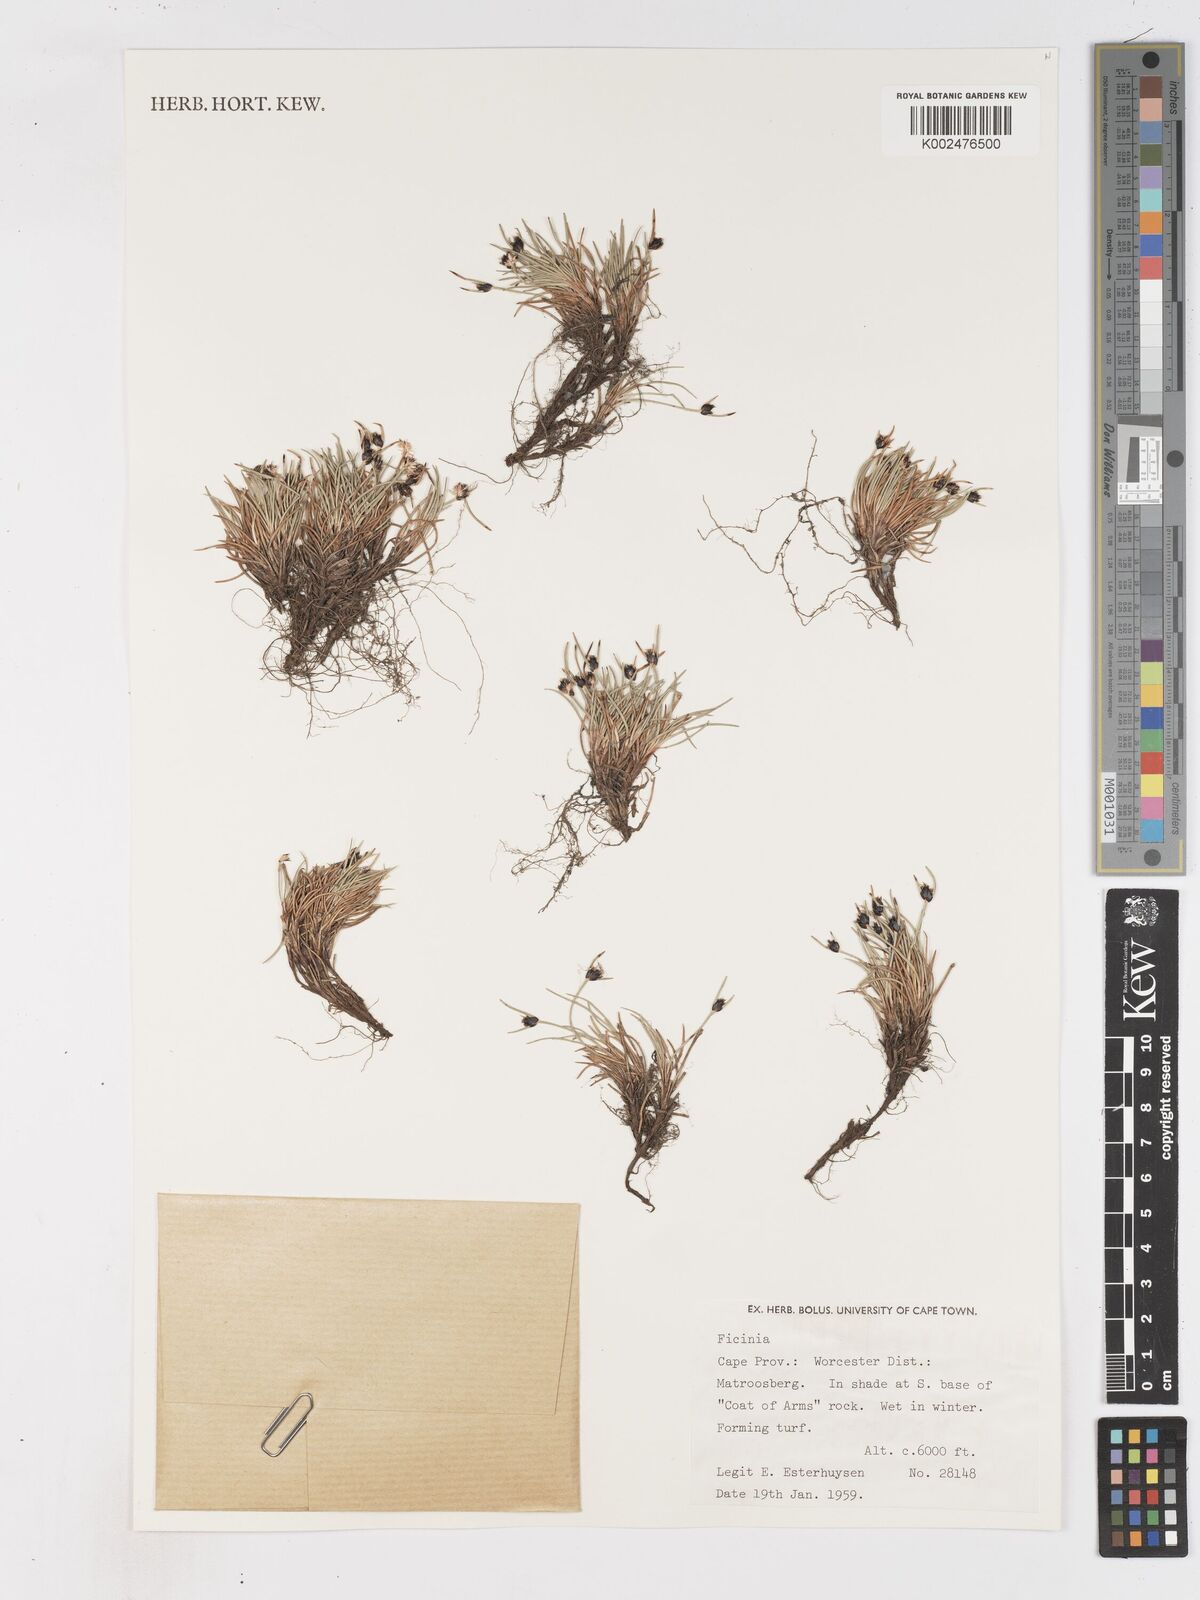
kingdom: Plantae
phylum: Tracheophyta
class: Liliopsida
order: Poales
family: Cyperaceae
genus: Ficinia
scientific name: Ficinia
